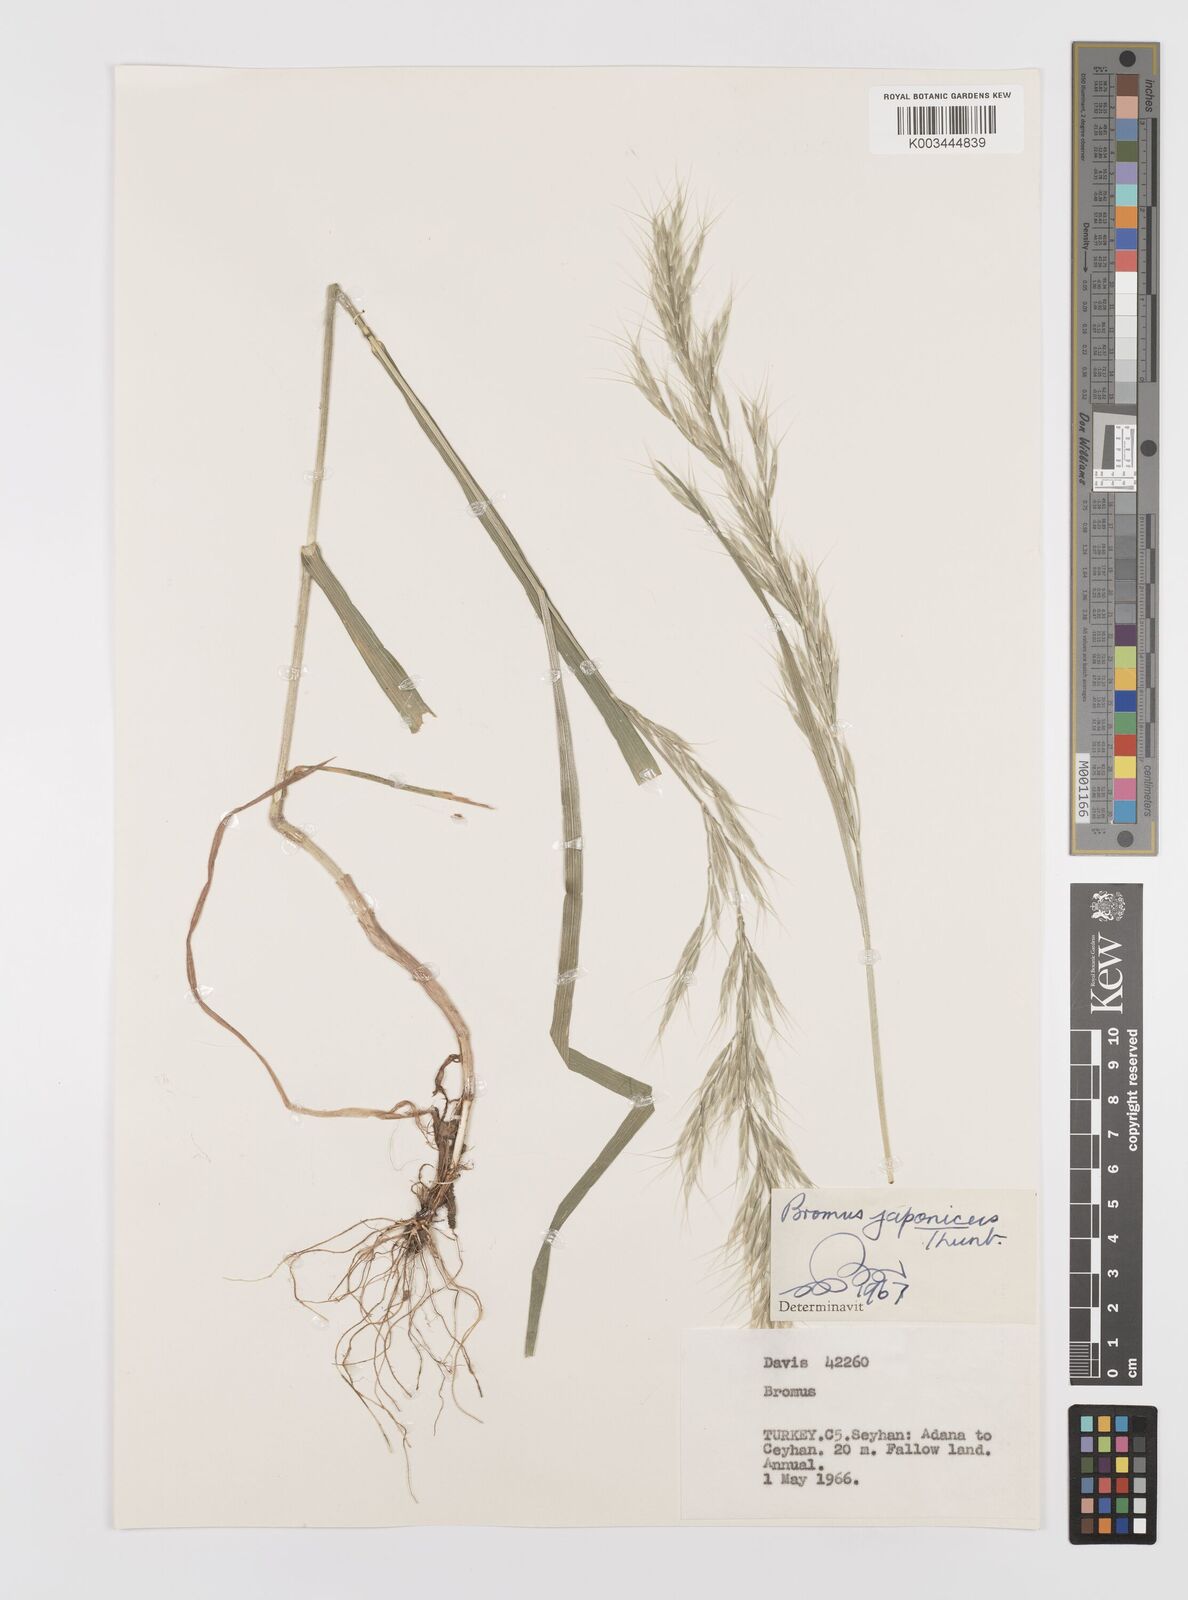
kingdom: Plantae
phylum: Tracheophyta
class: Liliopsida
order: Poales
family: Poaceae
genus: Bromus
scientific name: Bromus lanceolatus
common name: Mediterranean brome
